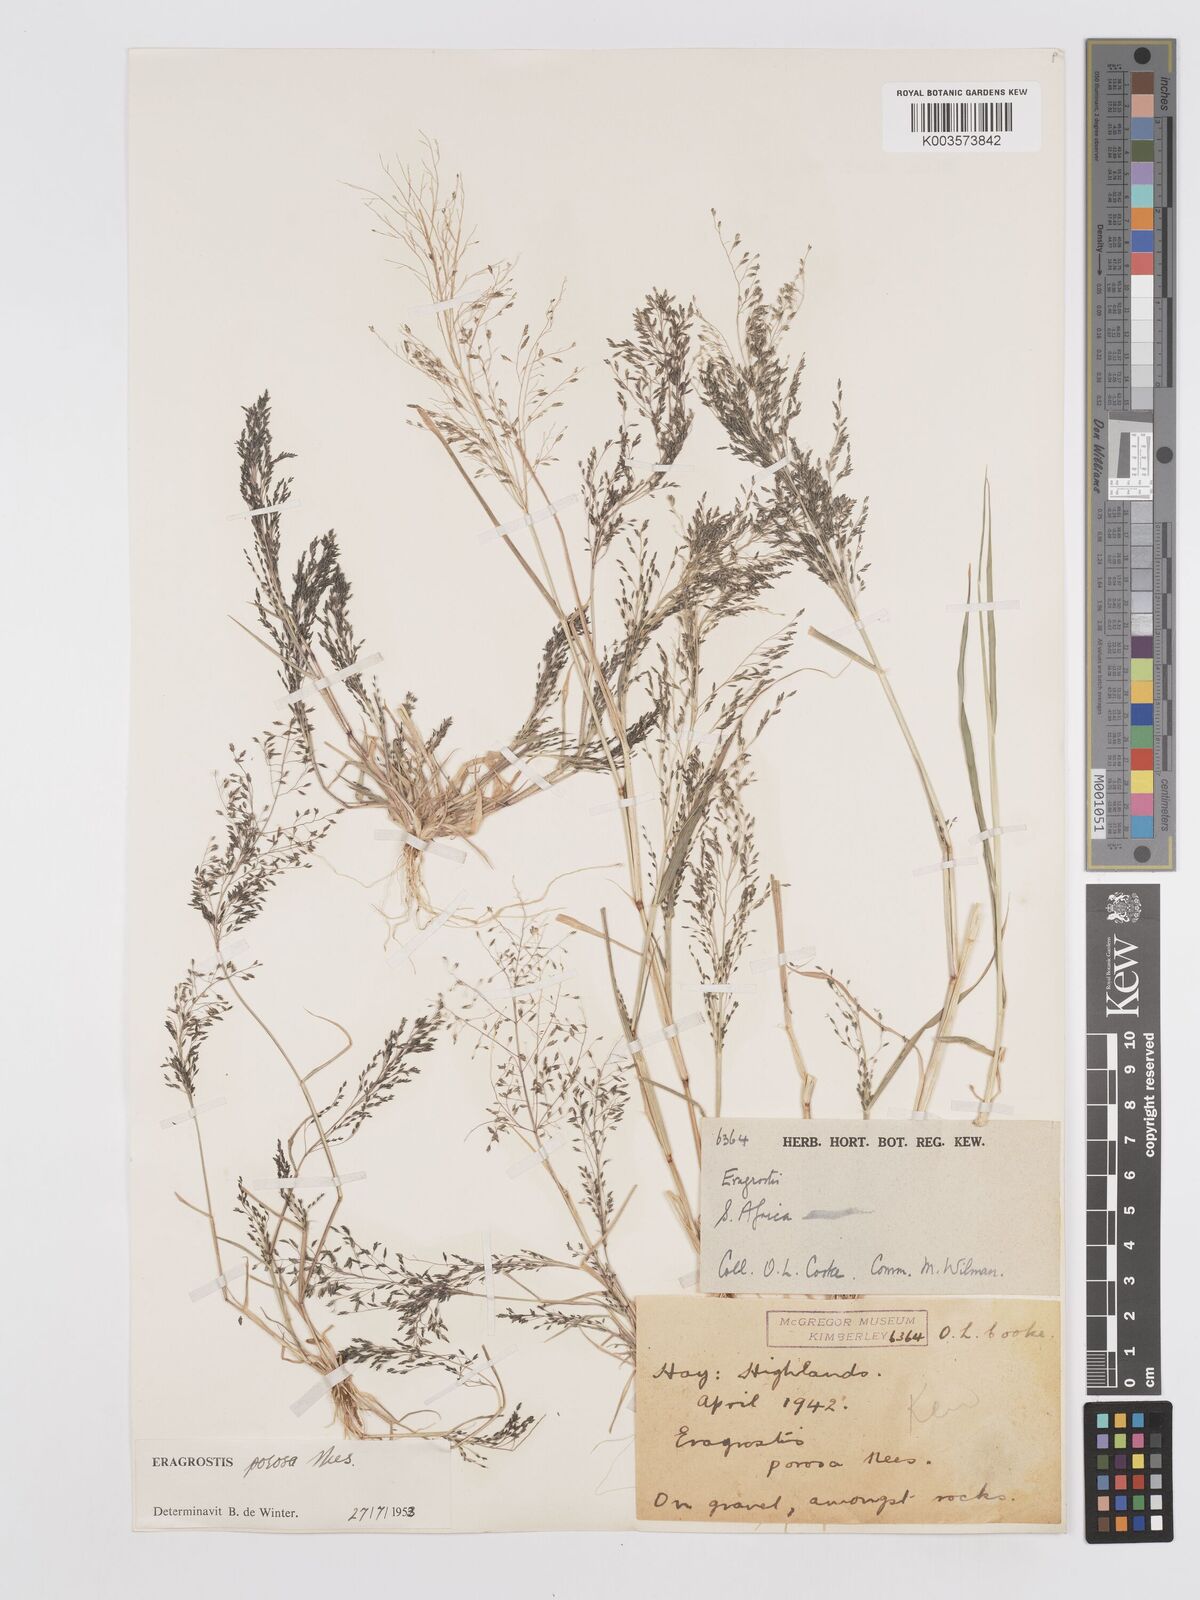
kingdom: Plantae
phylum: Tracheophyta
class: Liliopsida
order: Poales
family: Poaceae
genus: Eragrostis
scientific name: Eragrostis porosa
